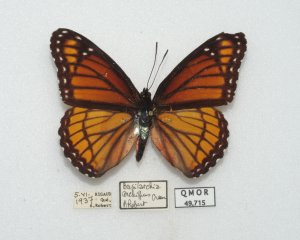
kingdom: Animalia
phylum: Arthropoda
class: Insecta
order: Lepidoptera
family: Nymphalidae
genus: Limenitis
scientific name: Limenitis archippus
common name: Viceroy
